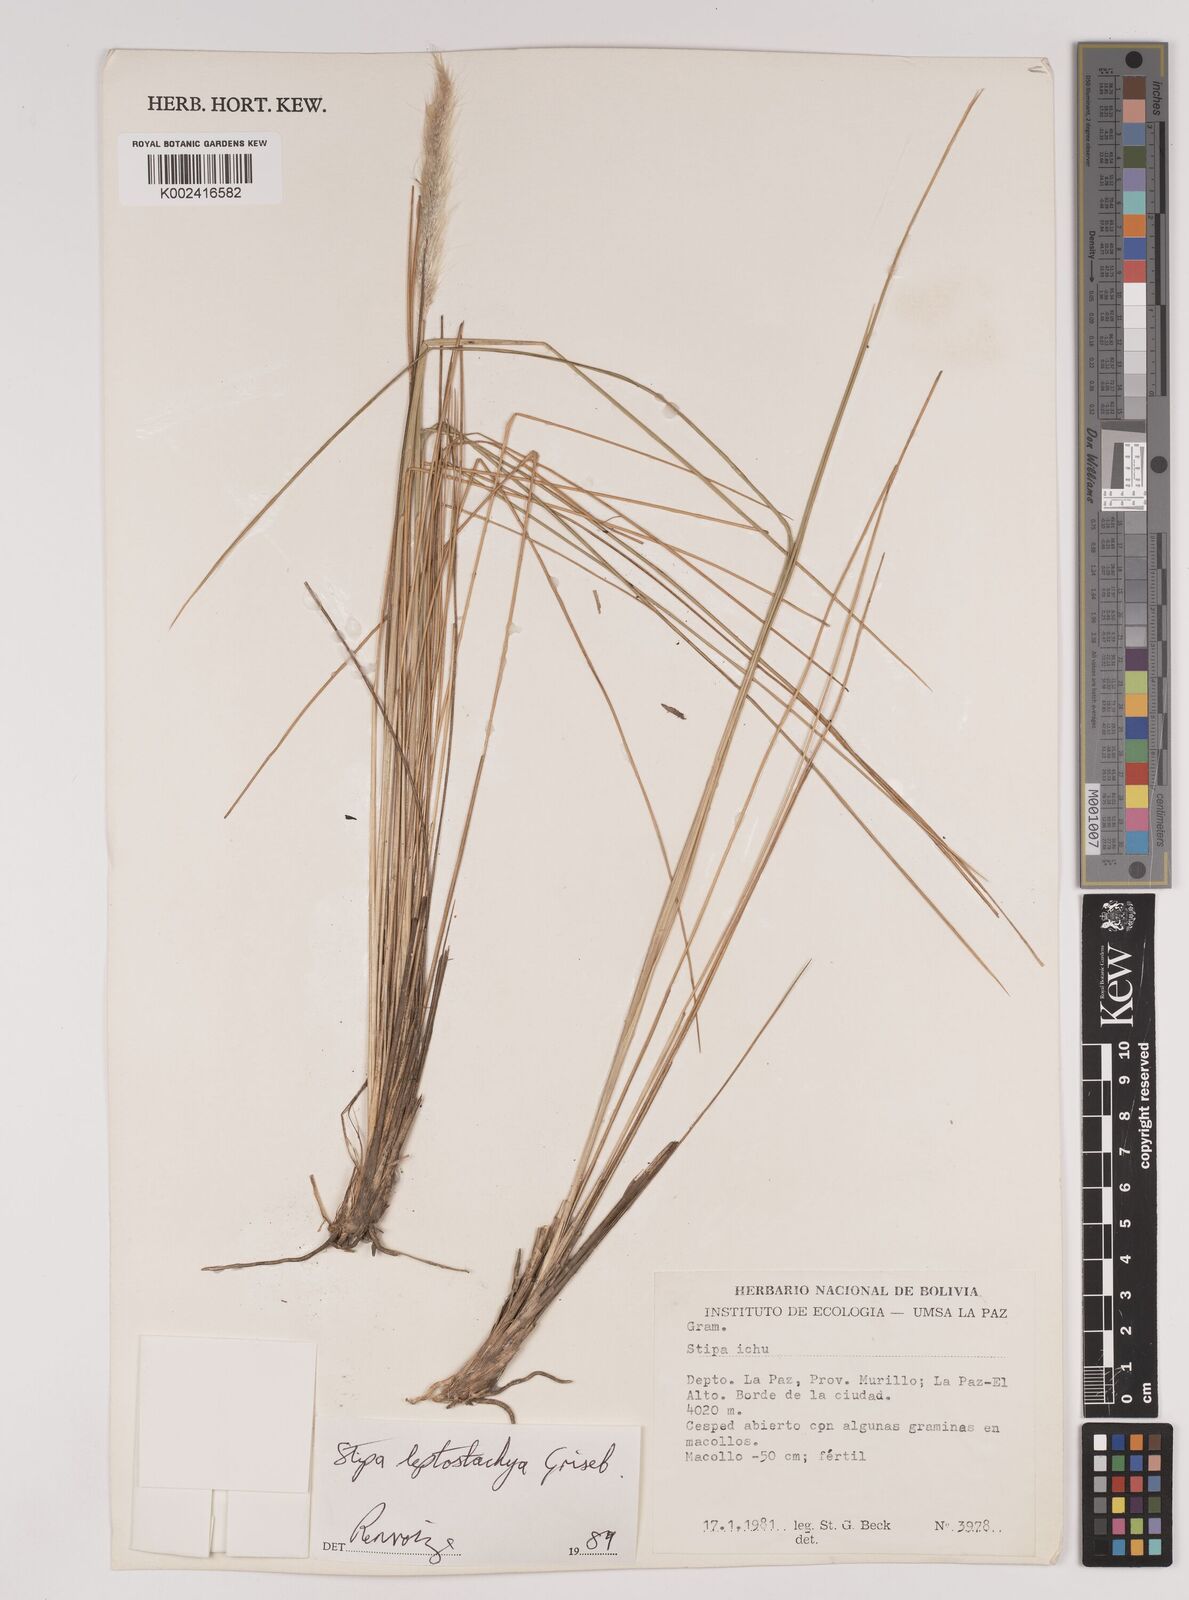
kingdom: Plantae
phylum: Tracheophyta
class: Liliopsida
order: Poales
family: Poaceae
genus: Jarava
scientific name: Jarava leptostachya
